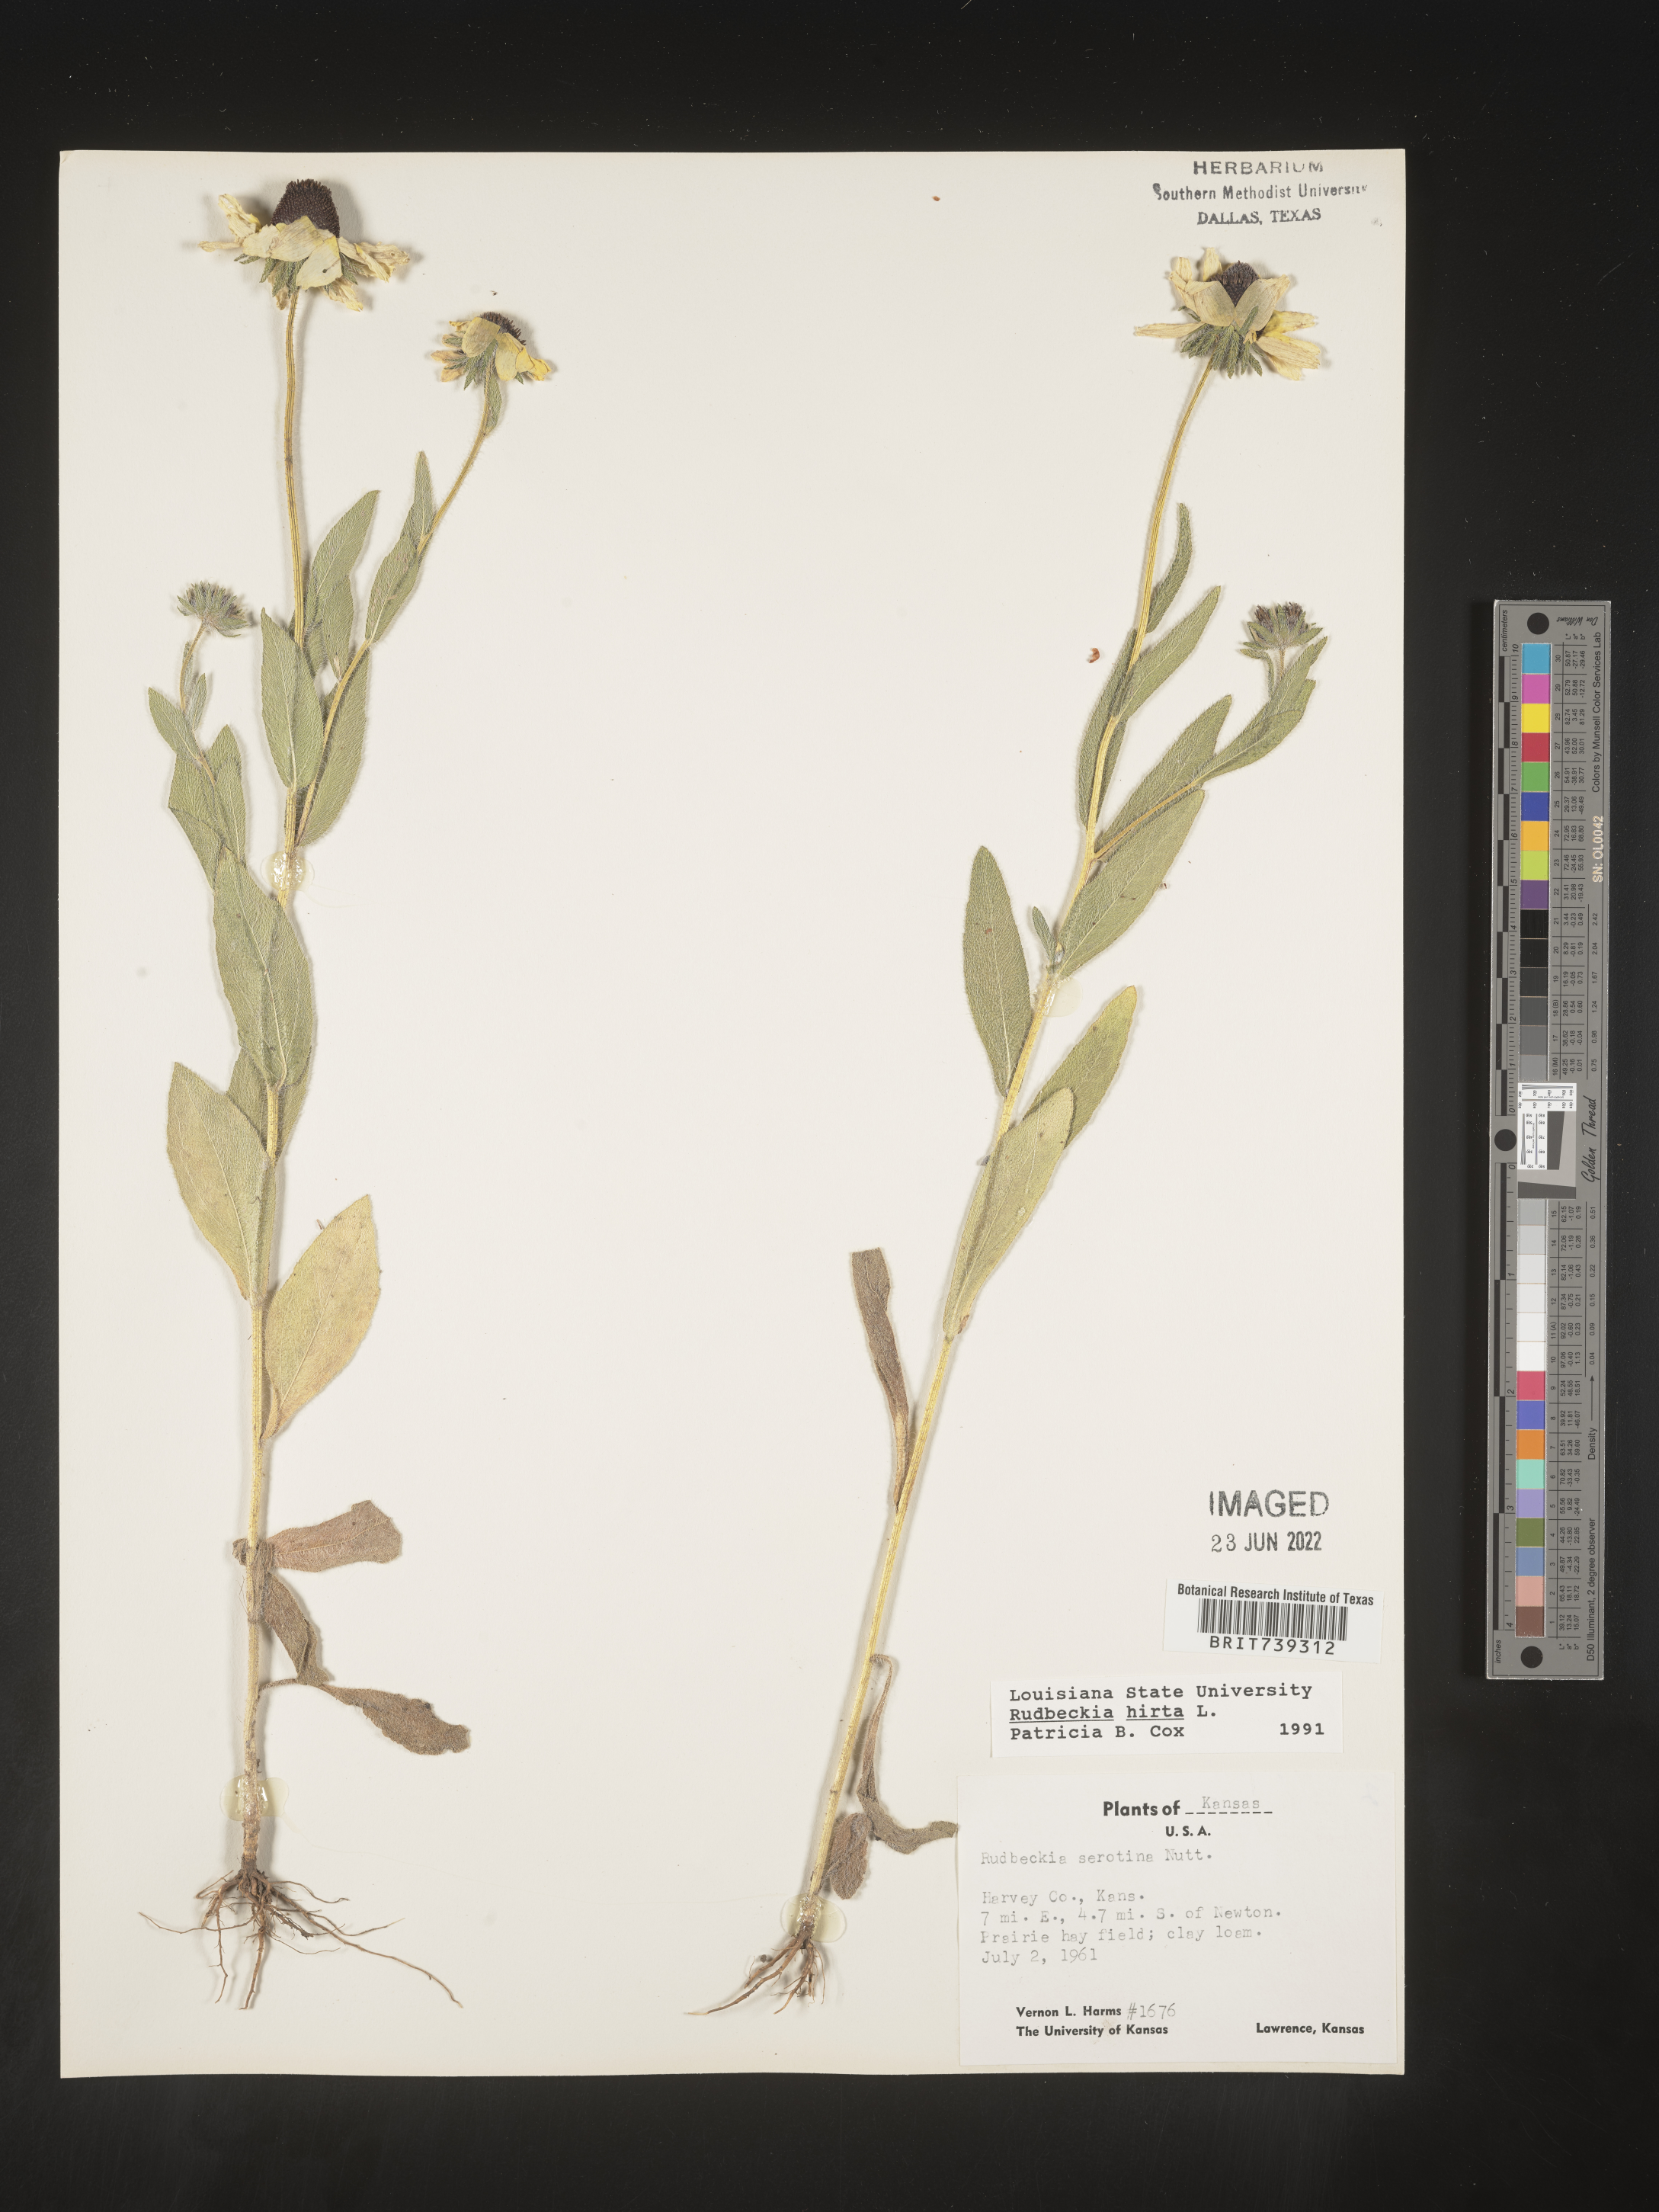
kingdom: Plantae
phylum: Tracheophyta
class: Magnoliopsida
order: Asterales
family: Asteraceae
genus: Rudbeckia
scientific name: Rudbeckia hirta
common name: Black-eyed-susan
